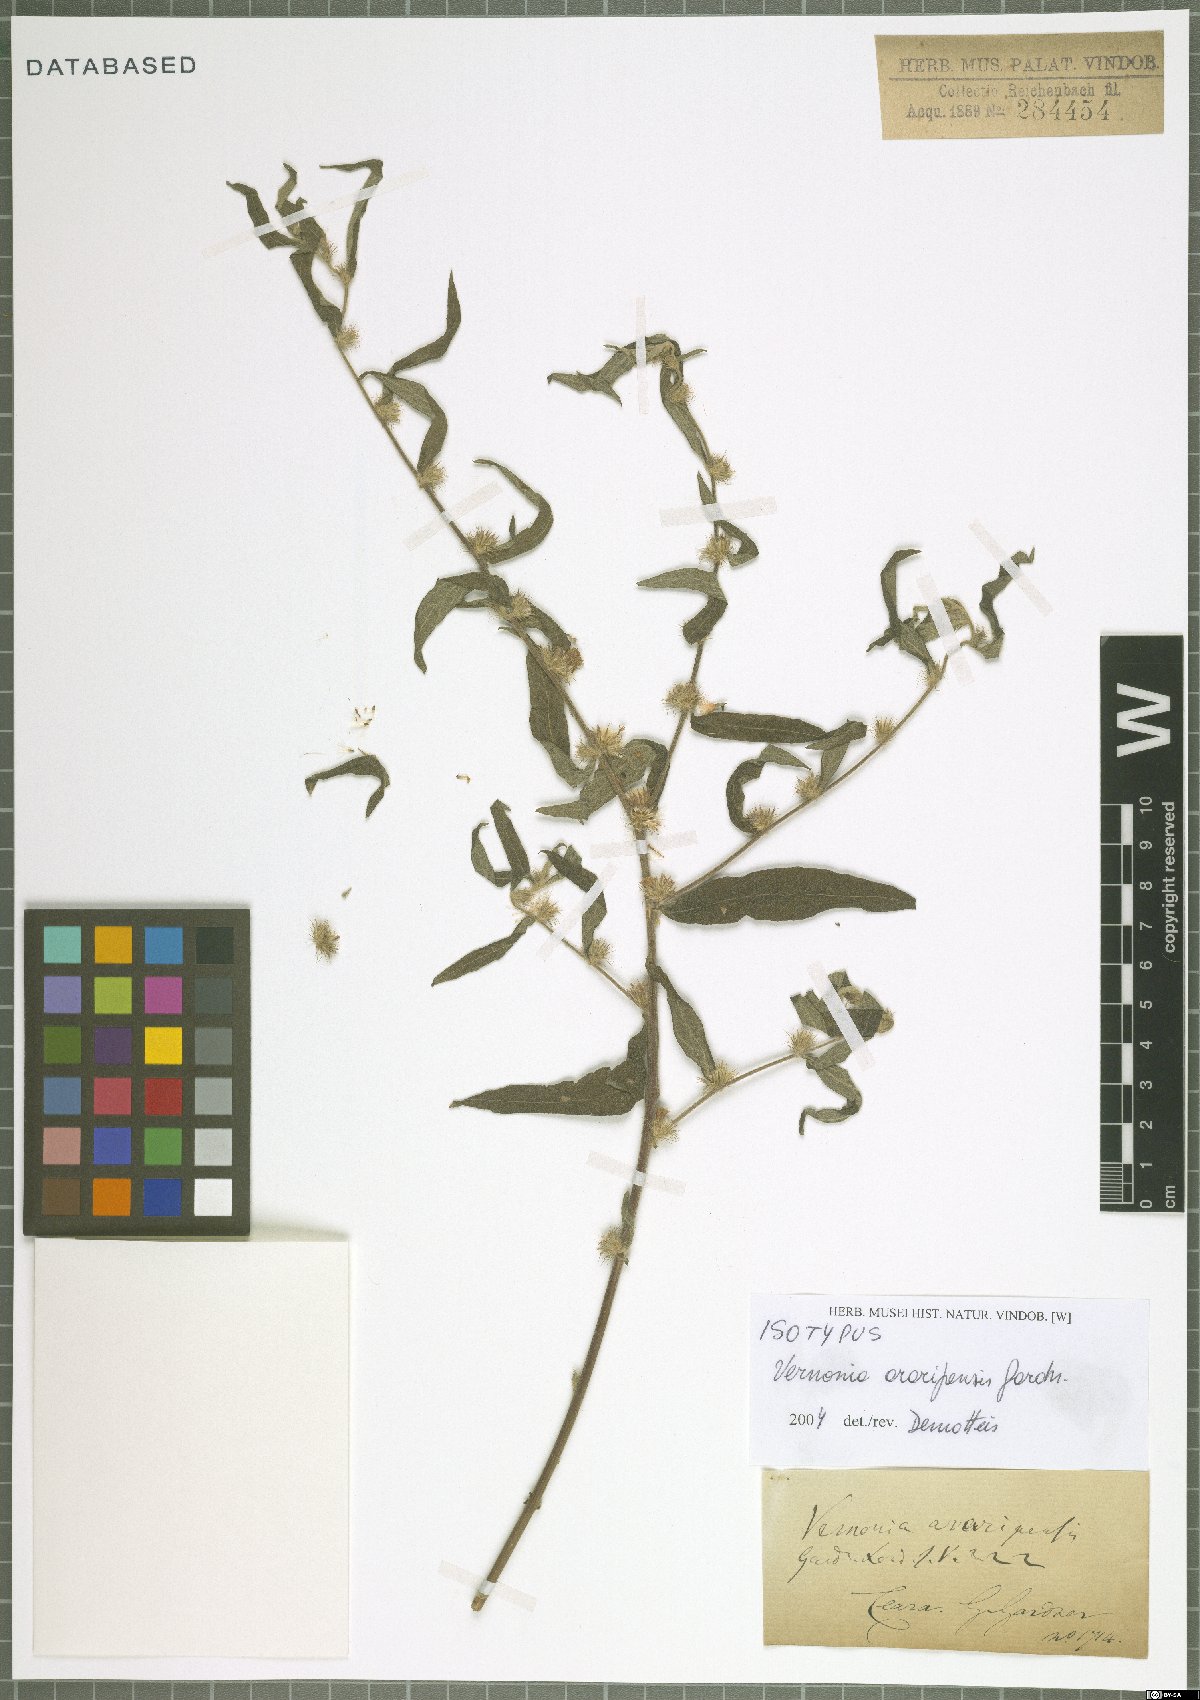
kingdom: Plantae
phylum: Tracheophyta
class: Magnoliopsida
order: Asterales
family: Asteraceae
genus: Lepidaploa
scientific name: Lepidaploa araripensis
